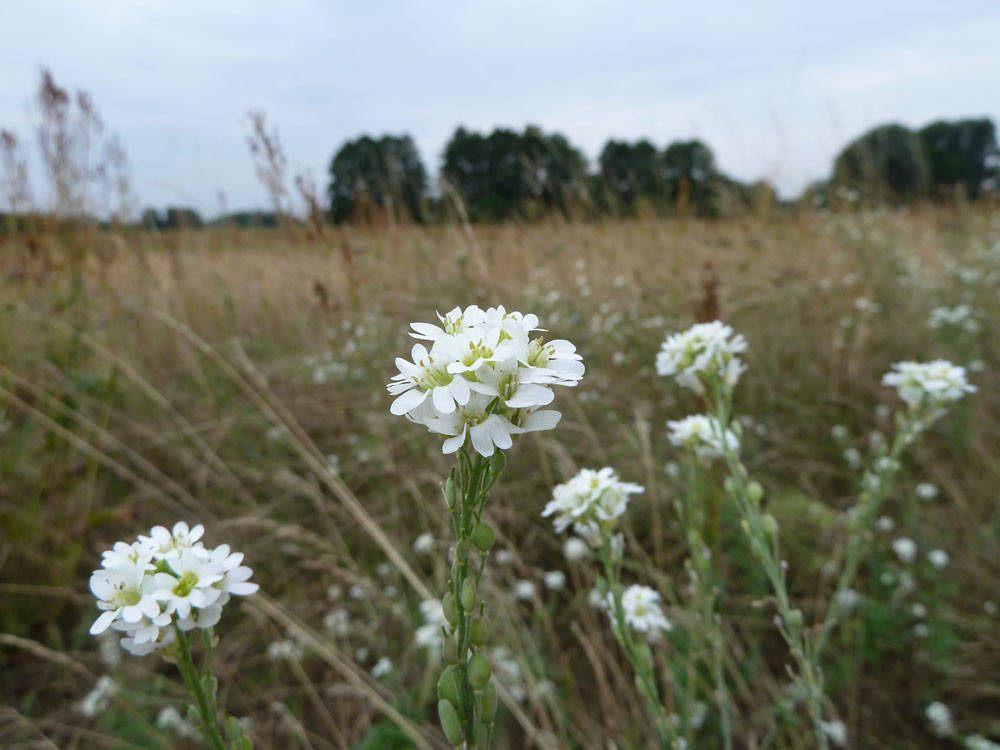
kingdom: Plantae
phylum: Tracheophyta
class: Magnoliopsida
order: Brassicales
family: Brassicaceae
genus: Berteroa
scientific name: Berteroa incana
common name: Hoary alison
